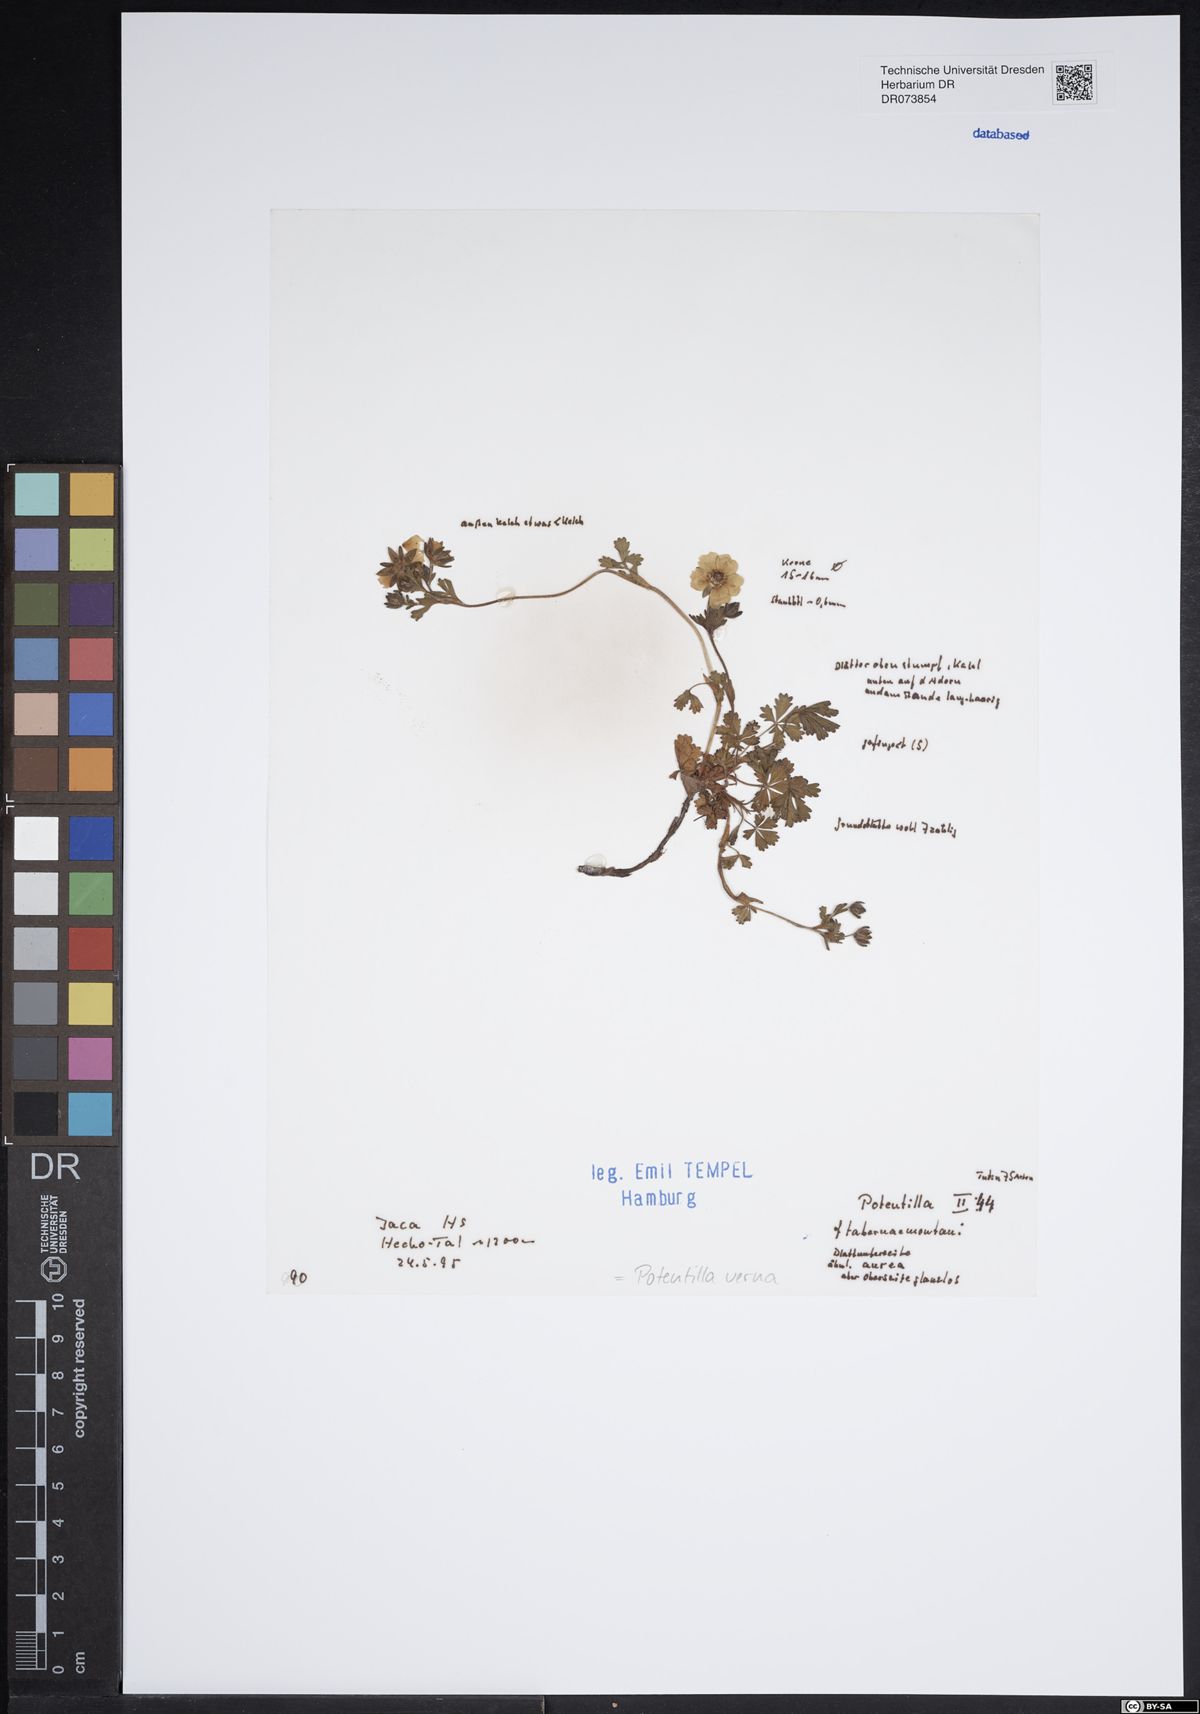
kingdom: Plantae
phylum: Tracheophyta
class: Magnoliopsida
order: Rosales
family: Rosaceae
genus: Potentilla
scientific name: Potentilla verna
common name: Spring cinquefoil
